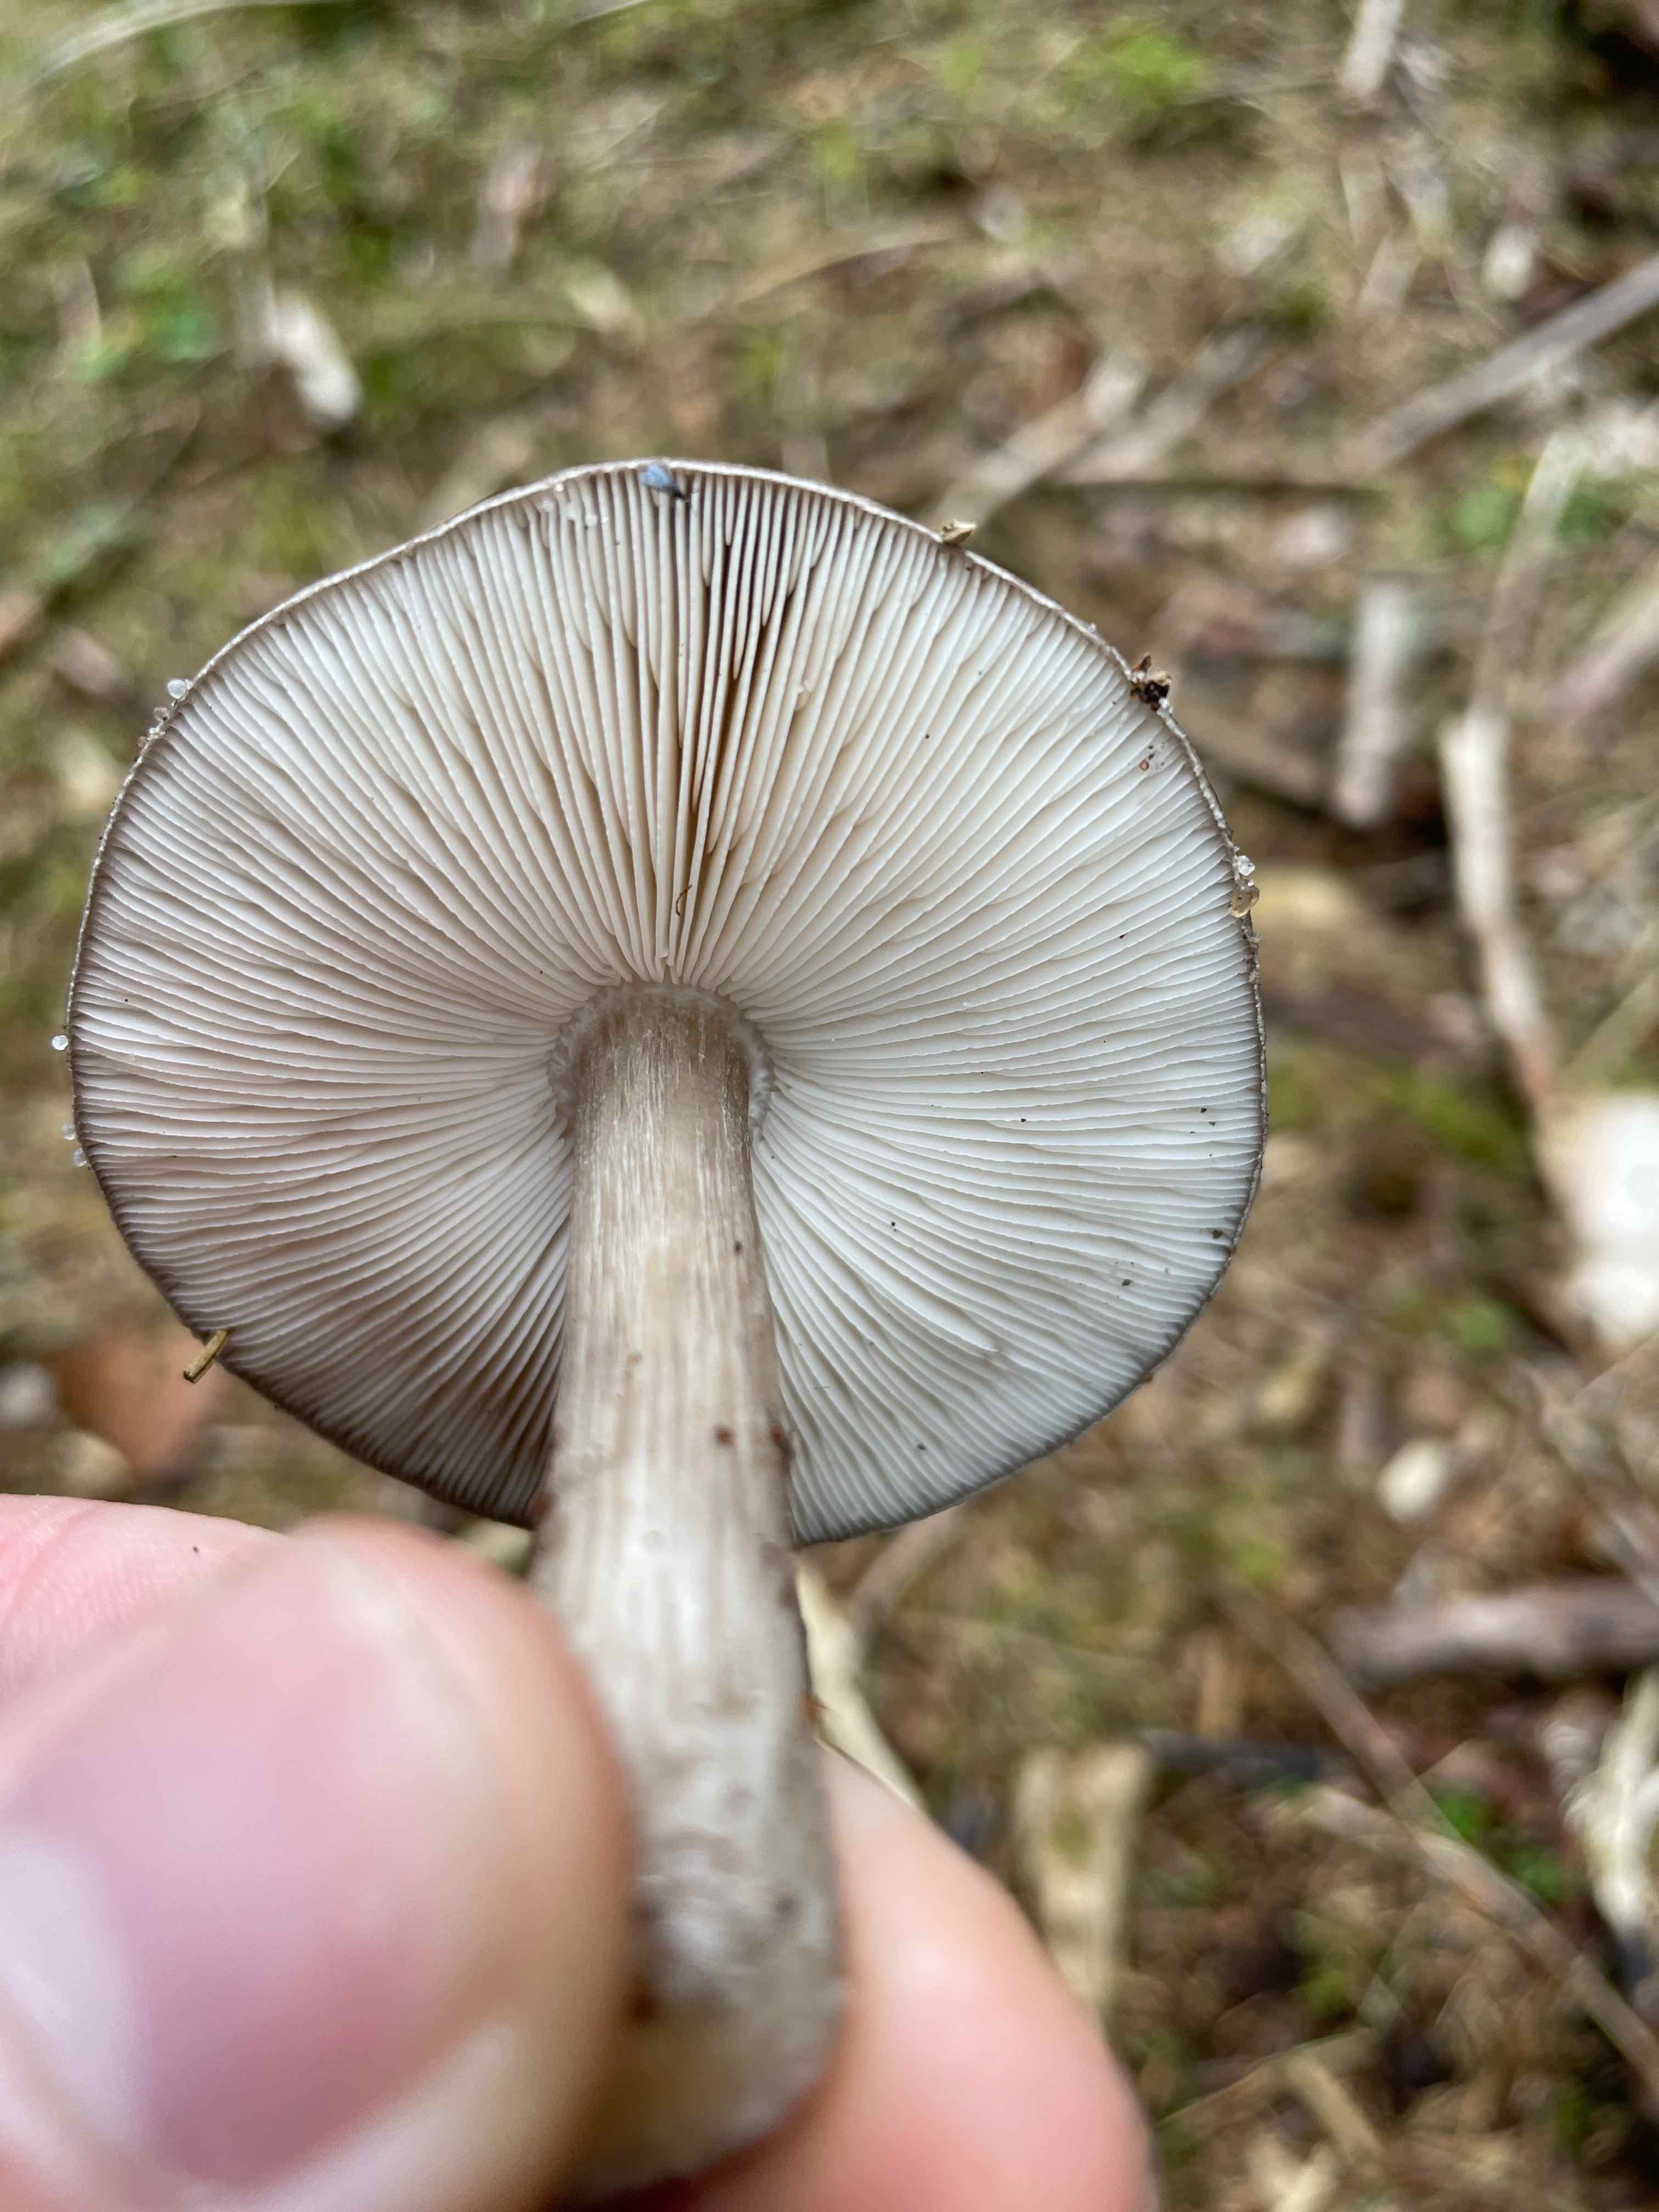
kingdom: Fungi
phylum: Basidiomycota
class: Agaricomycetes
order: Agaricales
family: Pluteaceae
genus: Pluteus
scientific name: Pluteus
